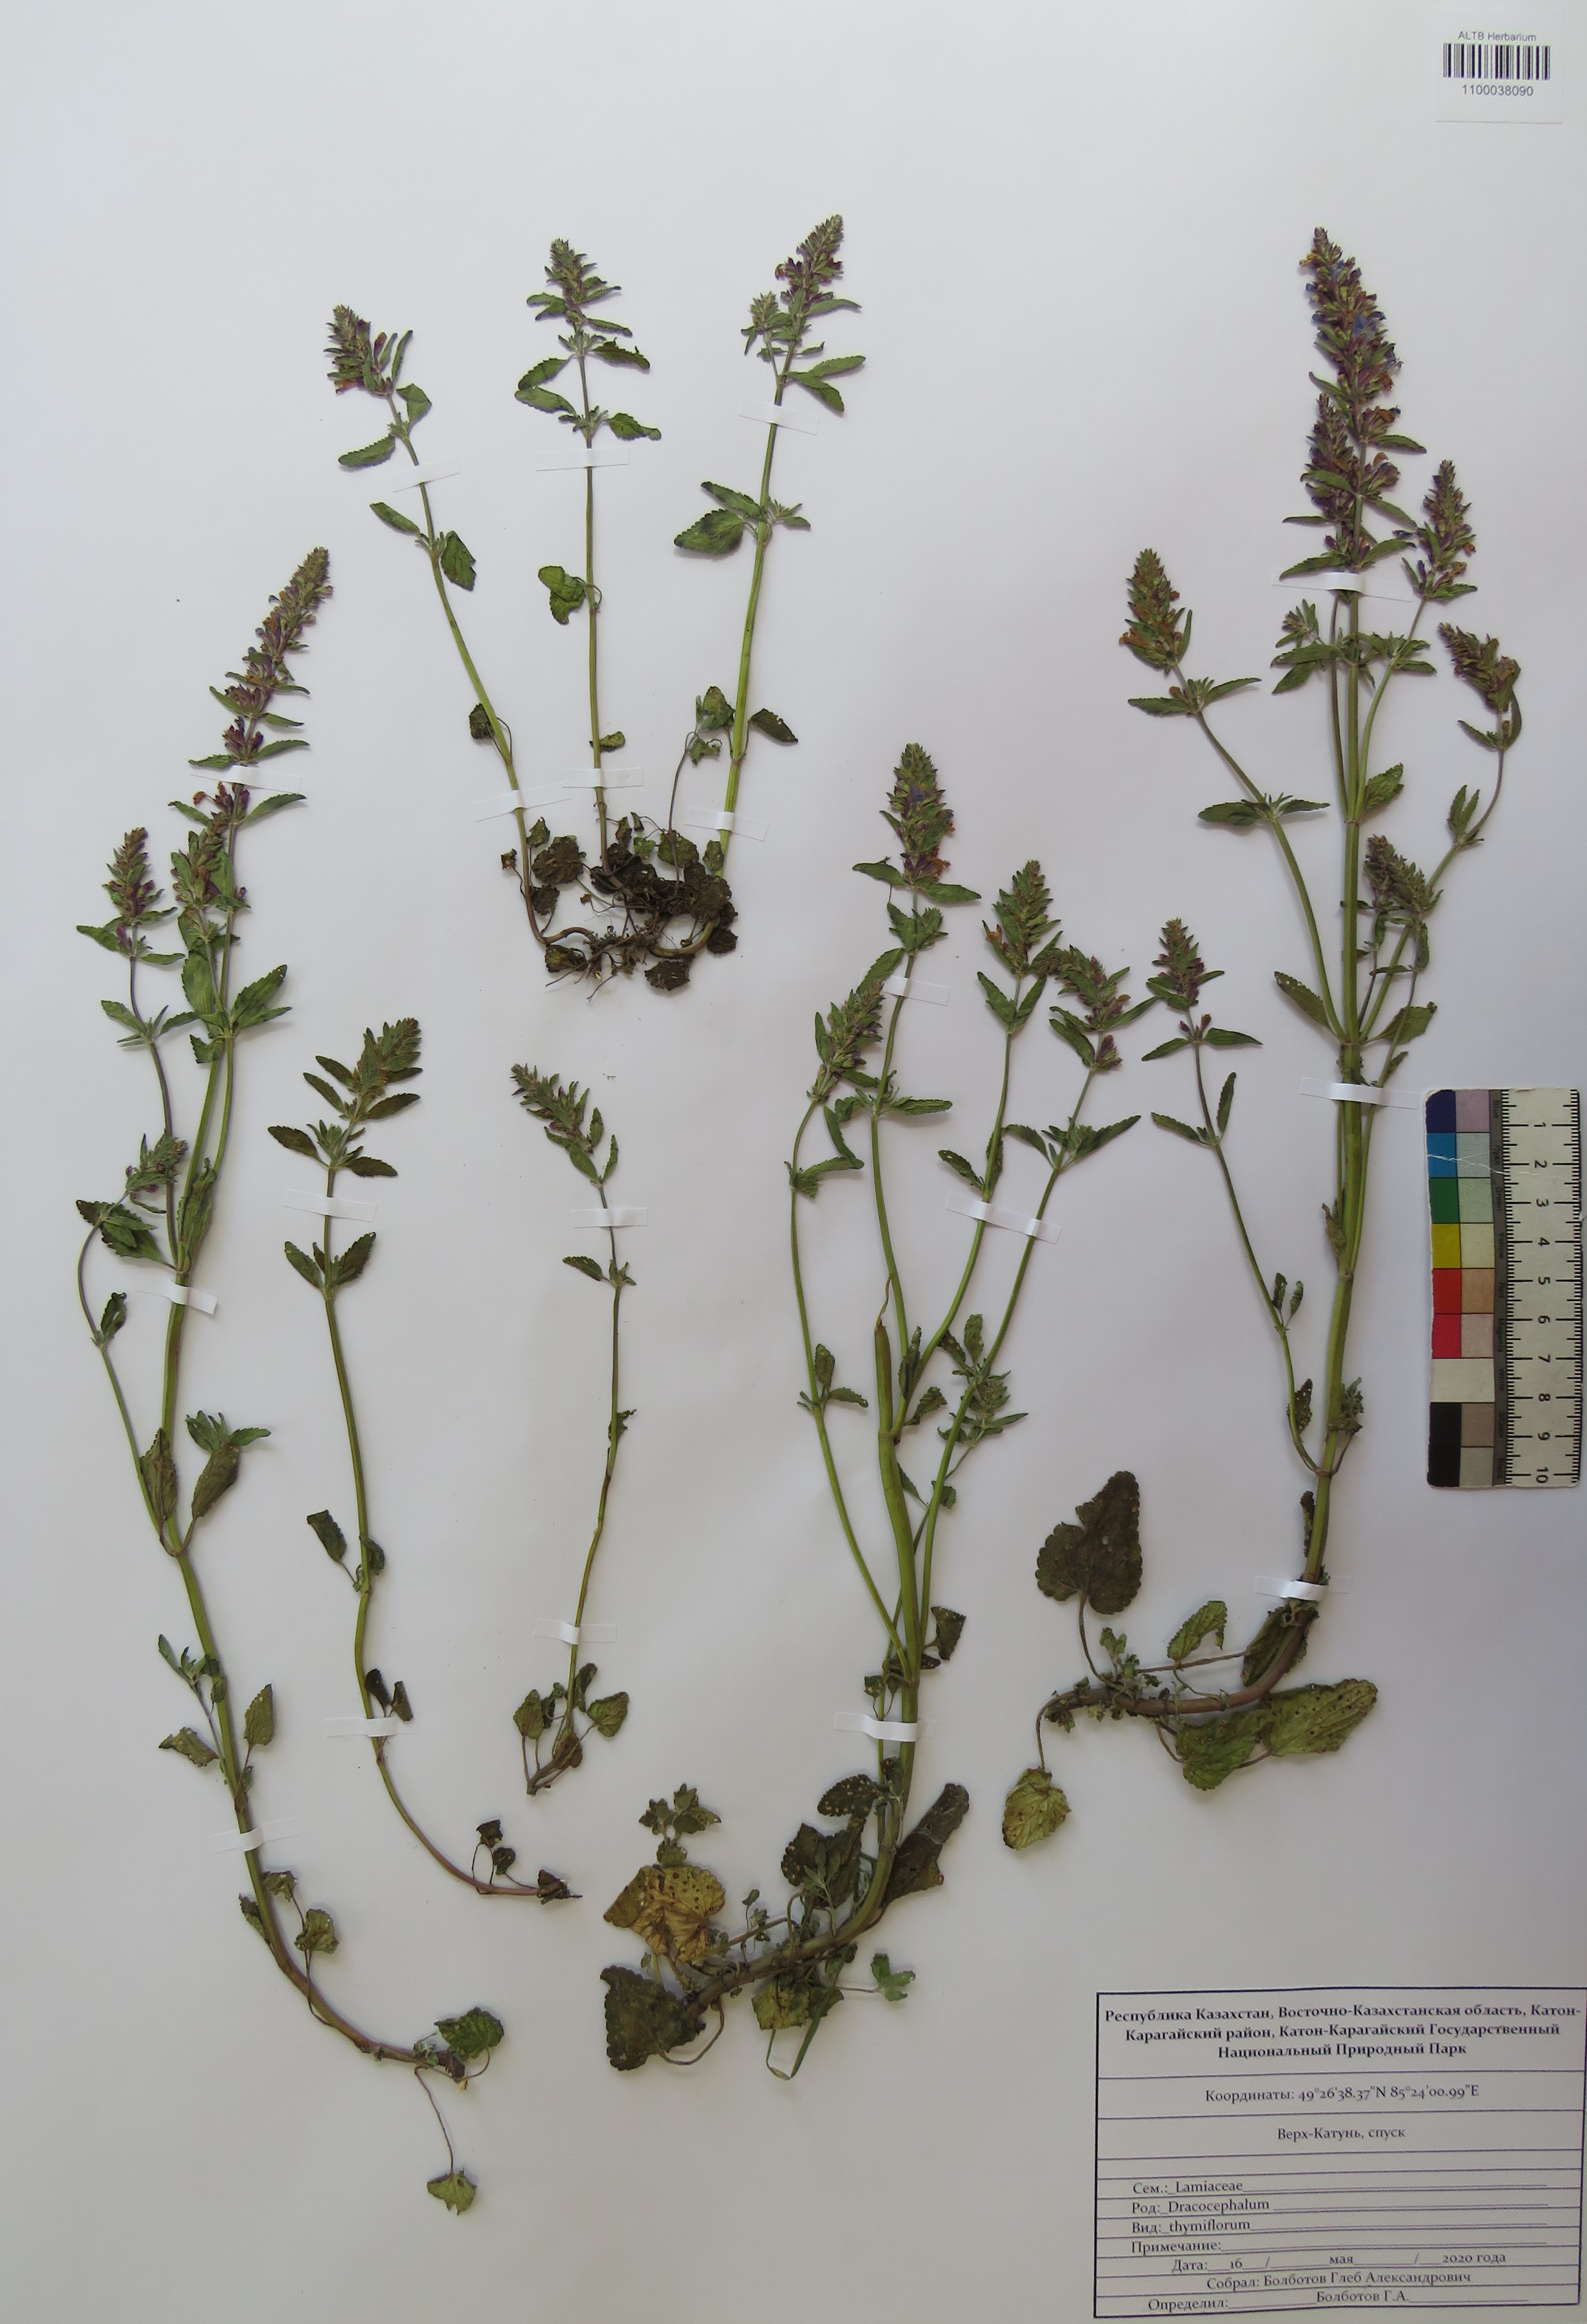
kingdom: Plantae
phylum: Tracheophyta
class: Magnoliopsida
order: Lamiales
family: Lamiaceae
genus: Dracocephalum
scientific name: Dracocephalum thymiflorum
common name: Thymeleaf dragonhead
